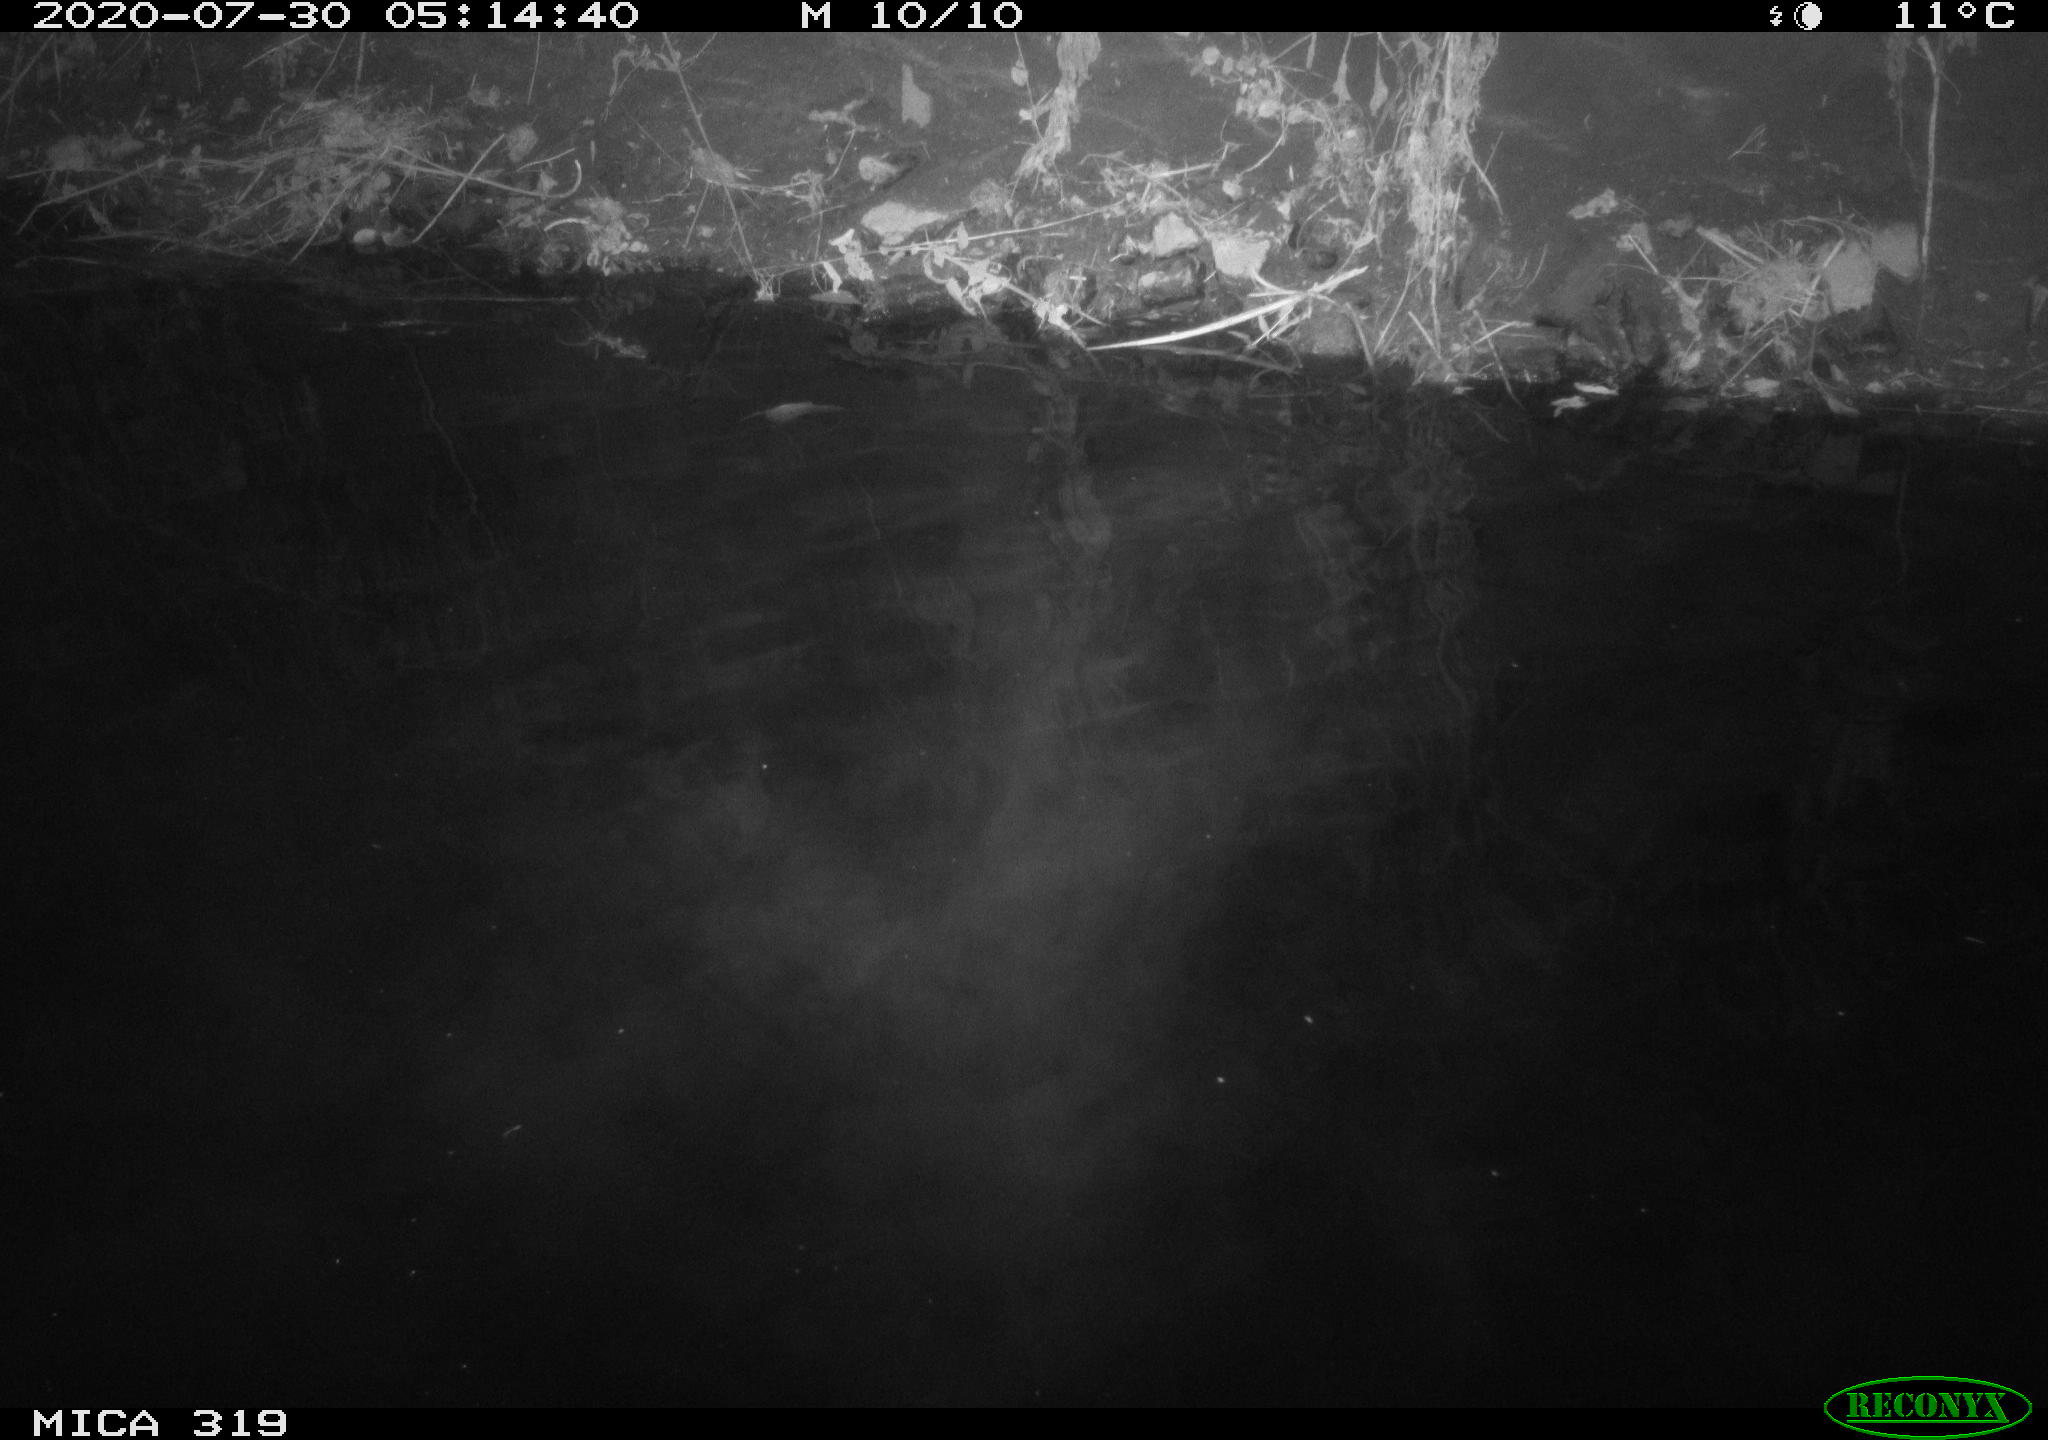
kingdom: Animalia
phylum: Chordata
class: Aves
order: Anseriformes
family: Anatidae
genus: Anas
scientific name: Anas platyrhynchos
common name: Mallard
